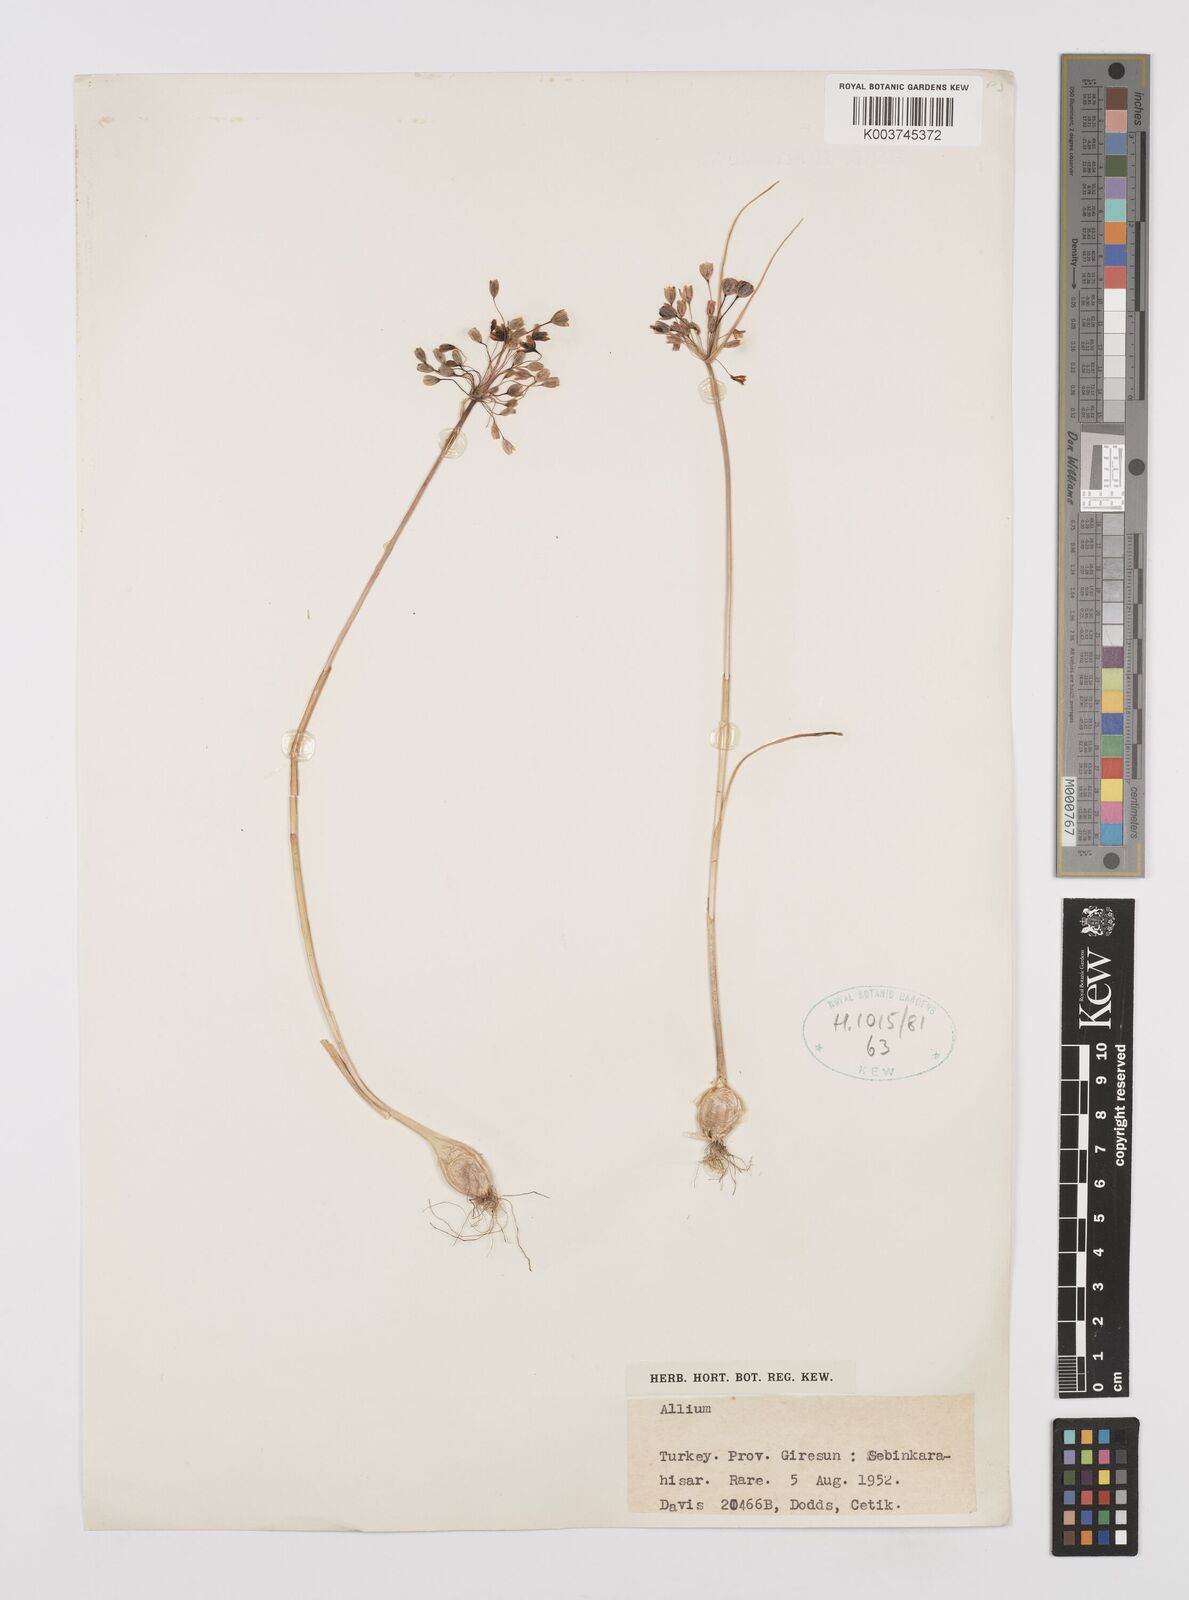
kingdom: Plantae
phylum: Tracheophyta
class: Liliopsida
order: Asparagales
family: Amaryllidaceae
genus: Allium
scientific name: Allium
